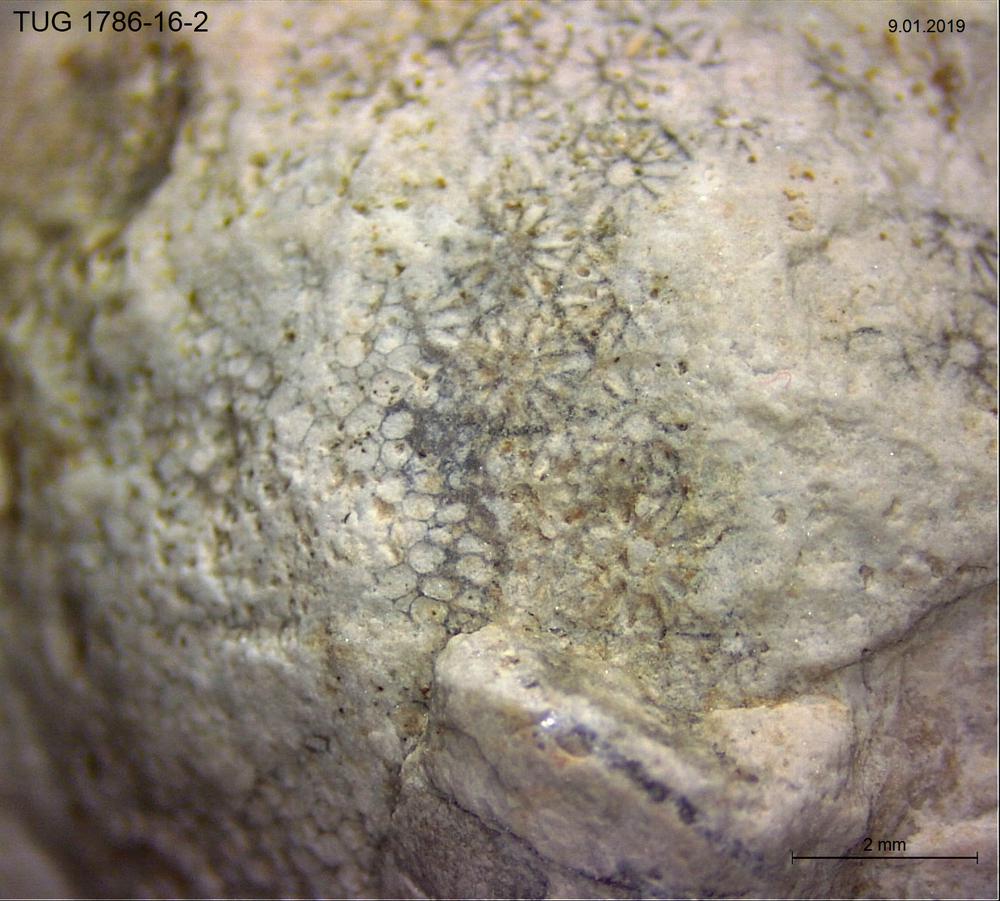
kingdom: Plantae
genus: Cyclorinus
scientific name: Cyclorinus Cyclocrinites spaskii
